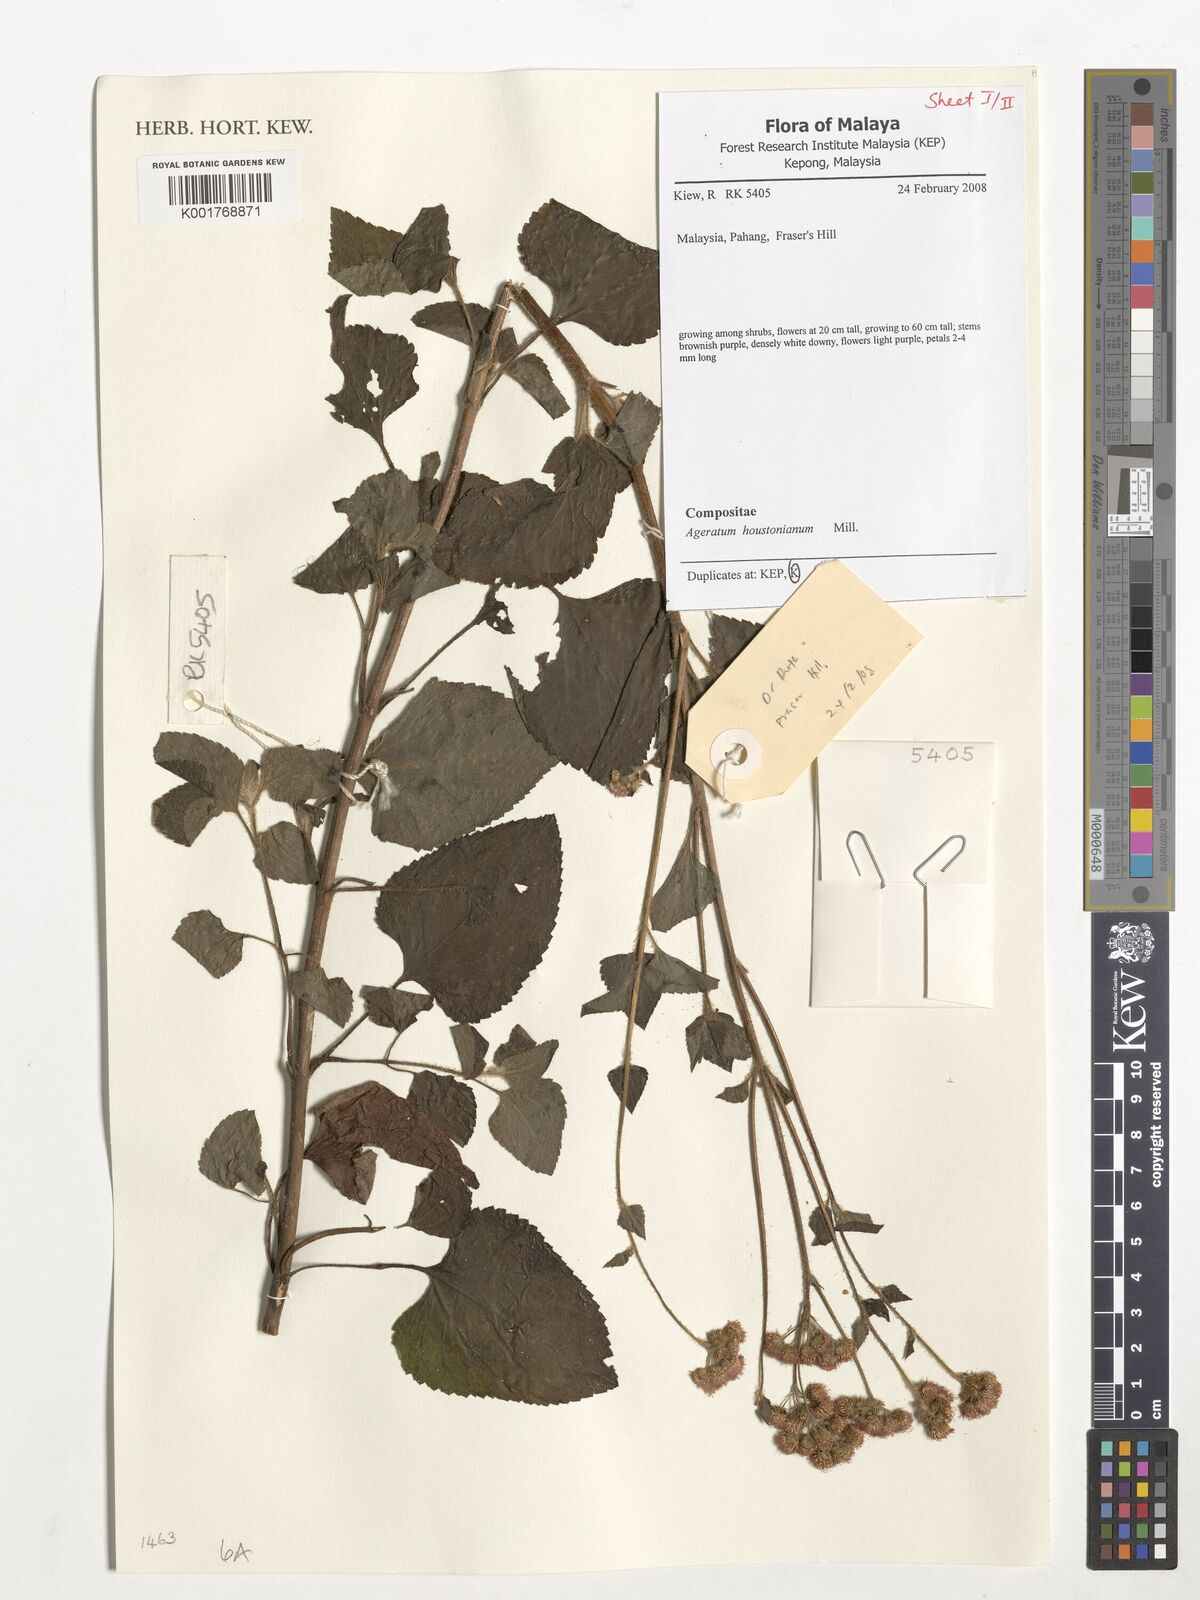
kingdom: Plantae
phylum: Tracheophyta
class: Magnoliopsida
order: Asterales
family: Asteraceae
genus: Ageratum
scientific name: Ageratum houstonianum
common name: Bluemink
